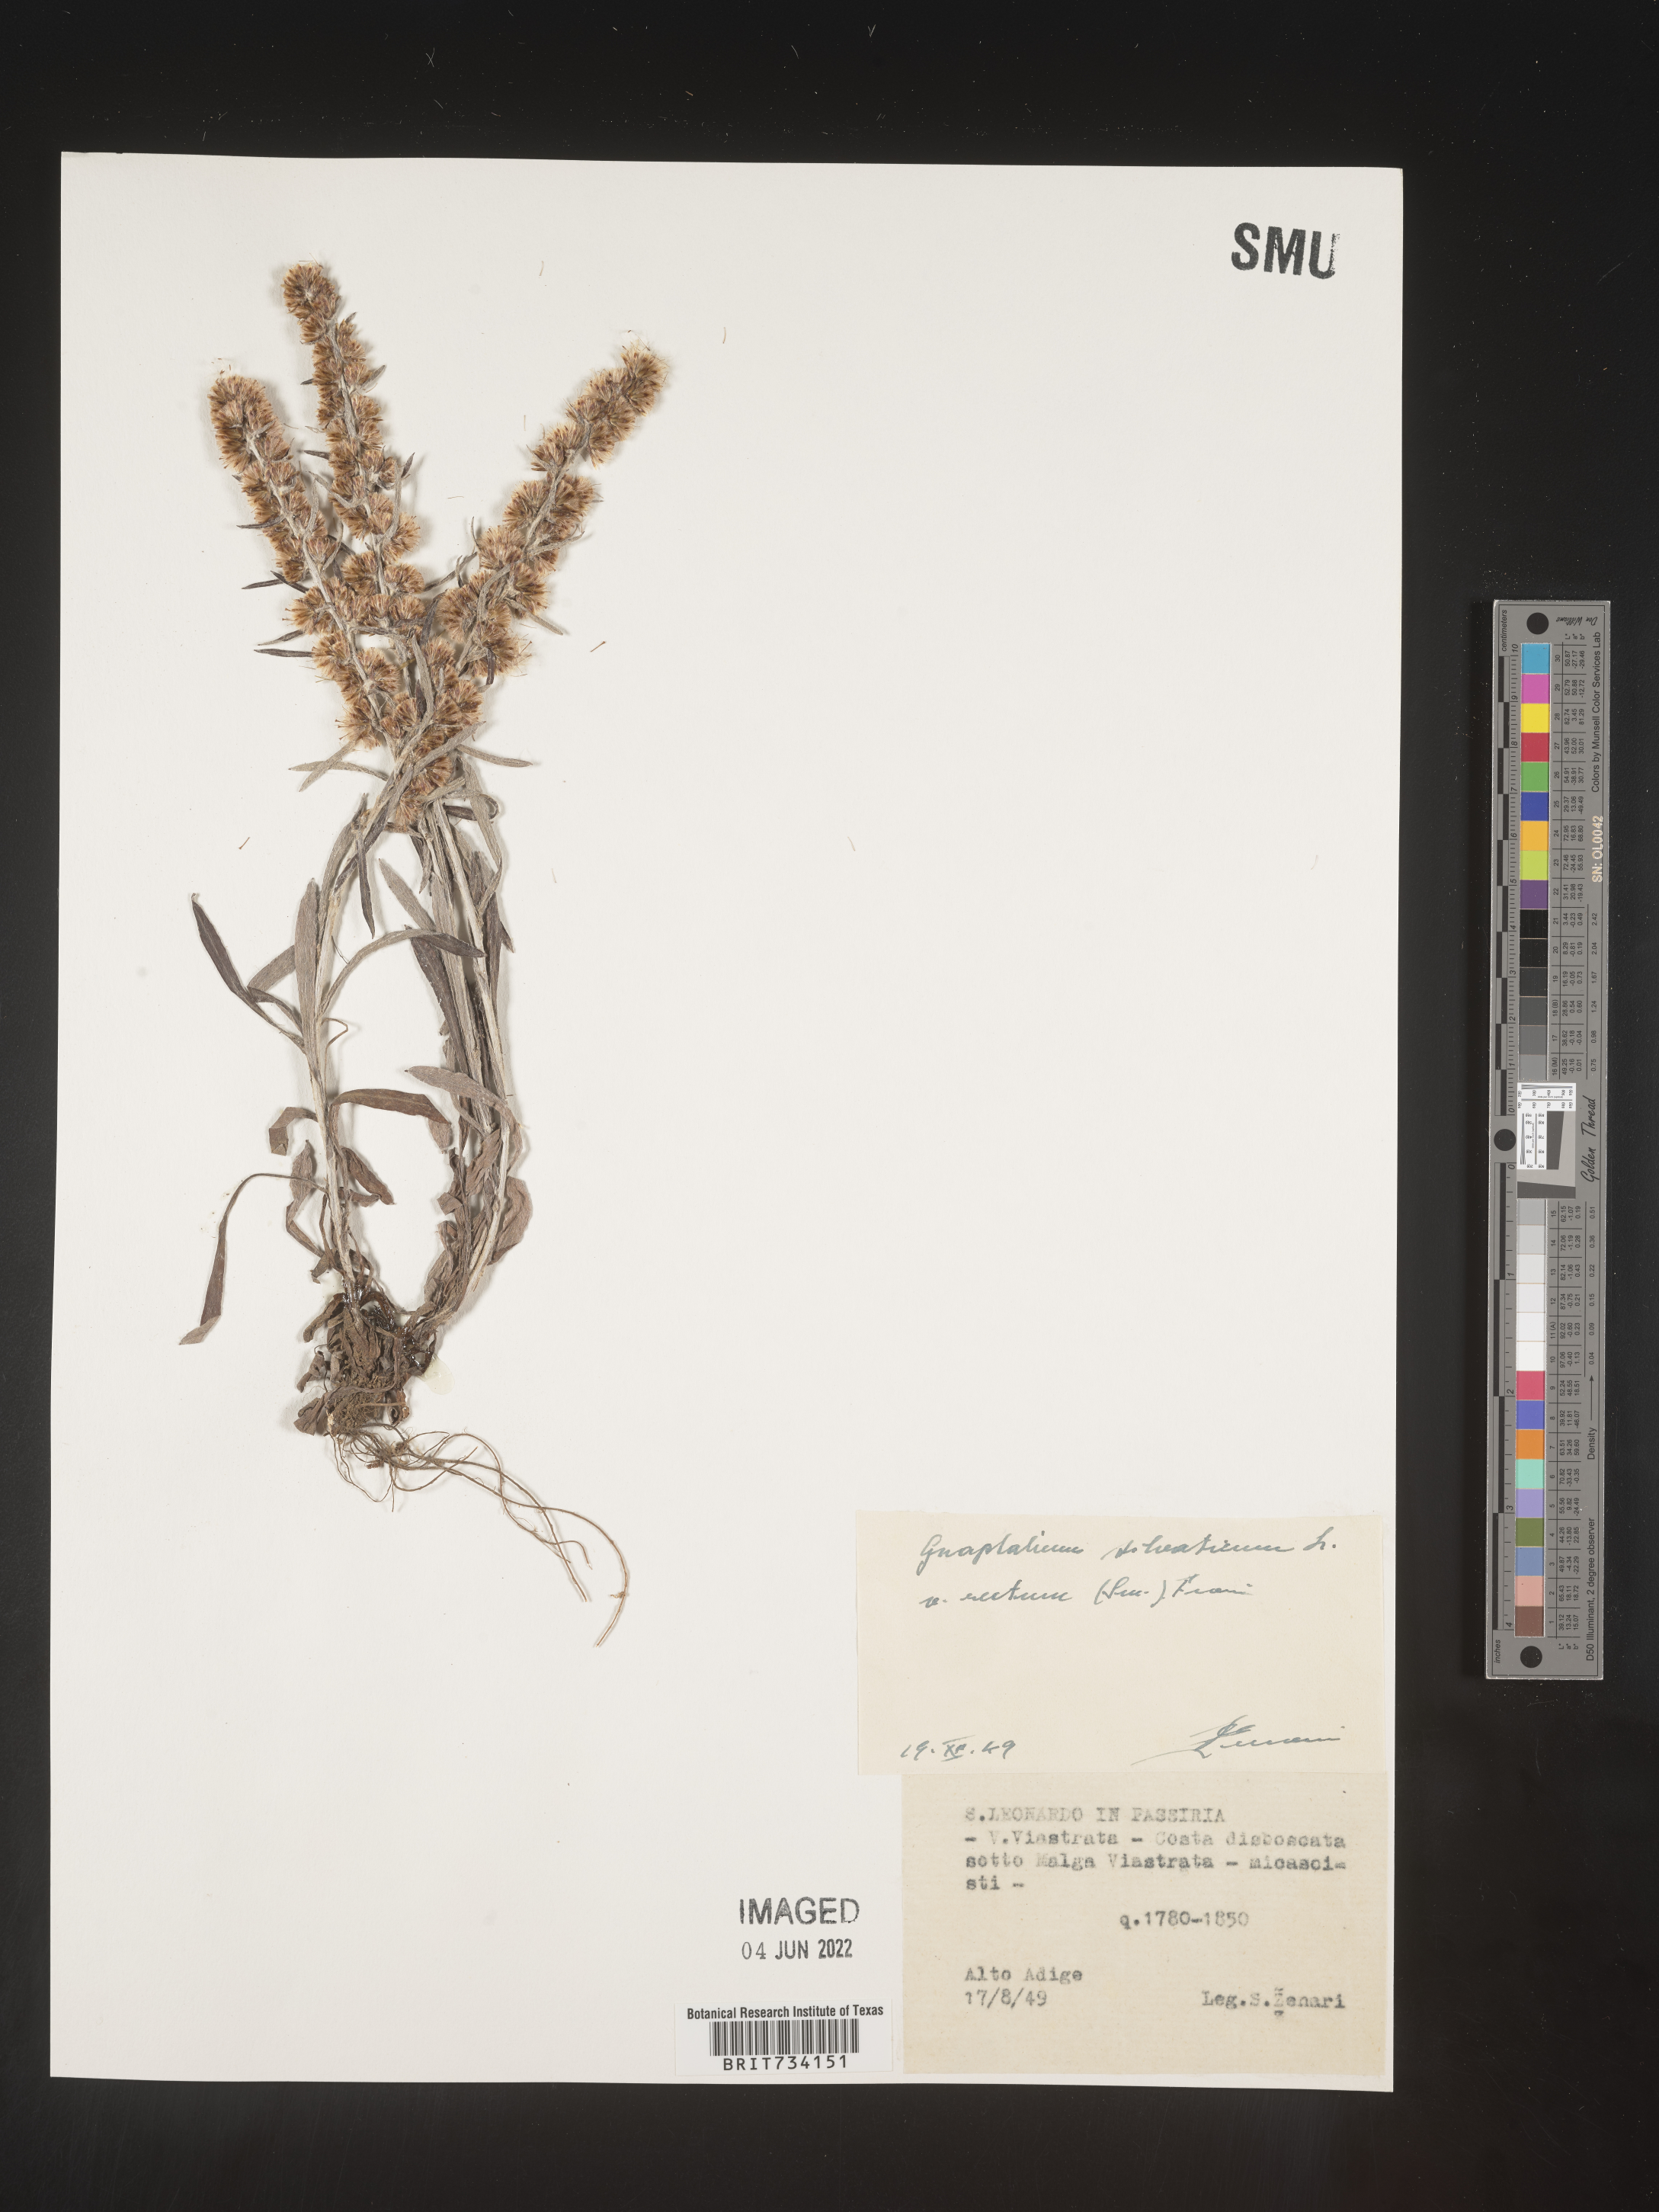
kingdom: Plantae
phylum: Tracheophyta
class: Magnoliopsida
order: Asterales
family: Asteraceae
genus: Omalotheca
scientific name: Omalotheca sylvatica
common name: Heath cudweed
